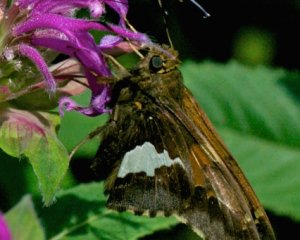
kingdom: Animalia
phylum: Arthropoda
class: Insecta
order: Lepidoptera
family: Hesperiidae
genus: Epargyreus
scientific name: Epargyreus clarus
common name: Silver-spotted Skipper
